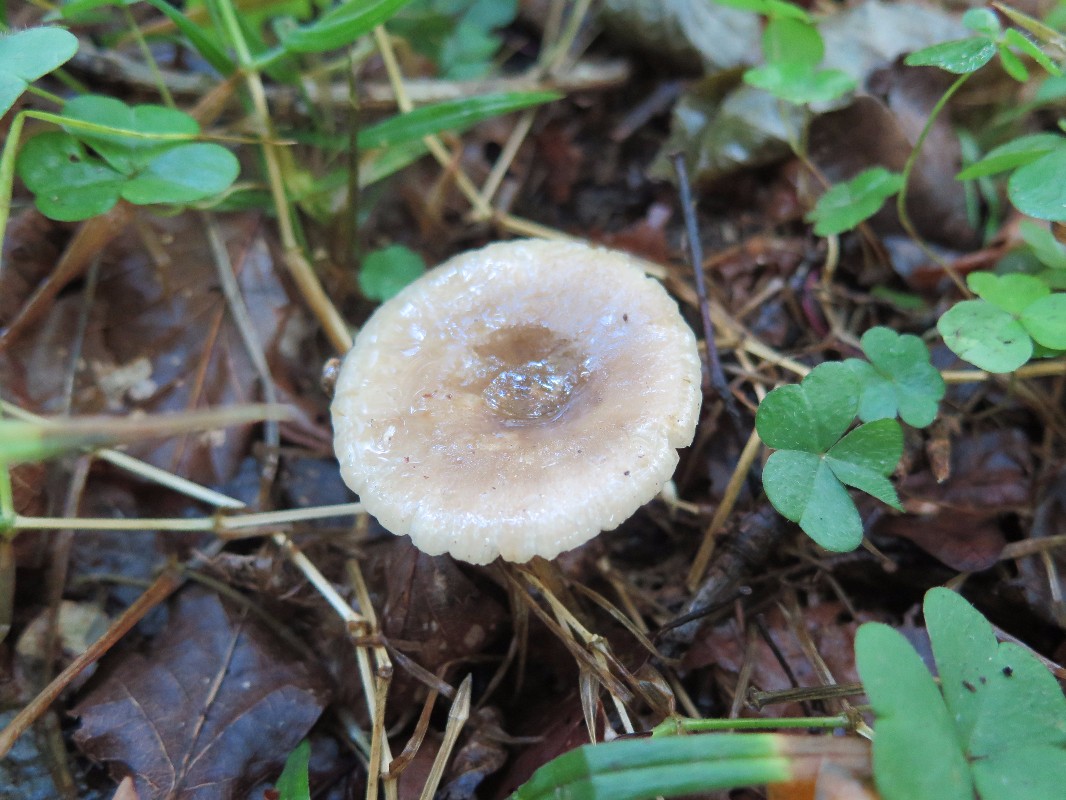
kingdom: Fungi
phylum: Basidiomycota
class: Agaricomycetes
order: Russulales
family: Russulaceae
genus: Russula
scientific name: Russula amoenolens
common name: skarp kam-skørhat
